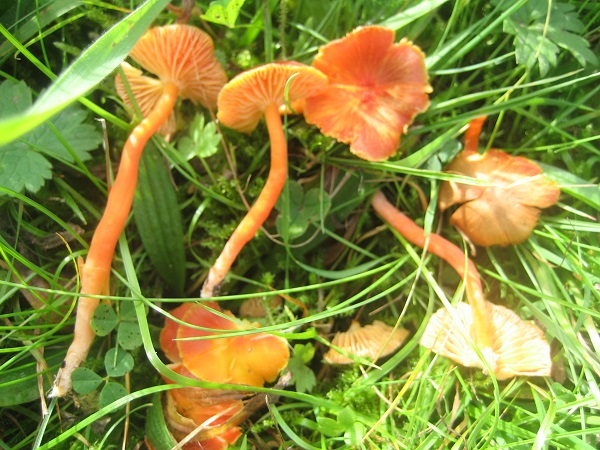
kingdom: Fungi
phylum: Basidiomycota
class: Agaricomycetes
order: Agaricales
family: Hygrophoraceae
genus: Hygrocybe
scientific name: Hygrocybe miniata
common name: mønje-vokshat
